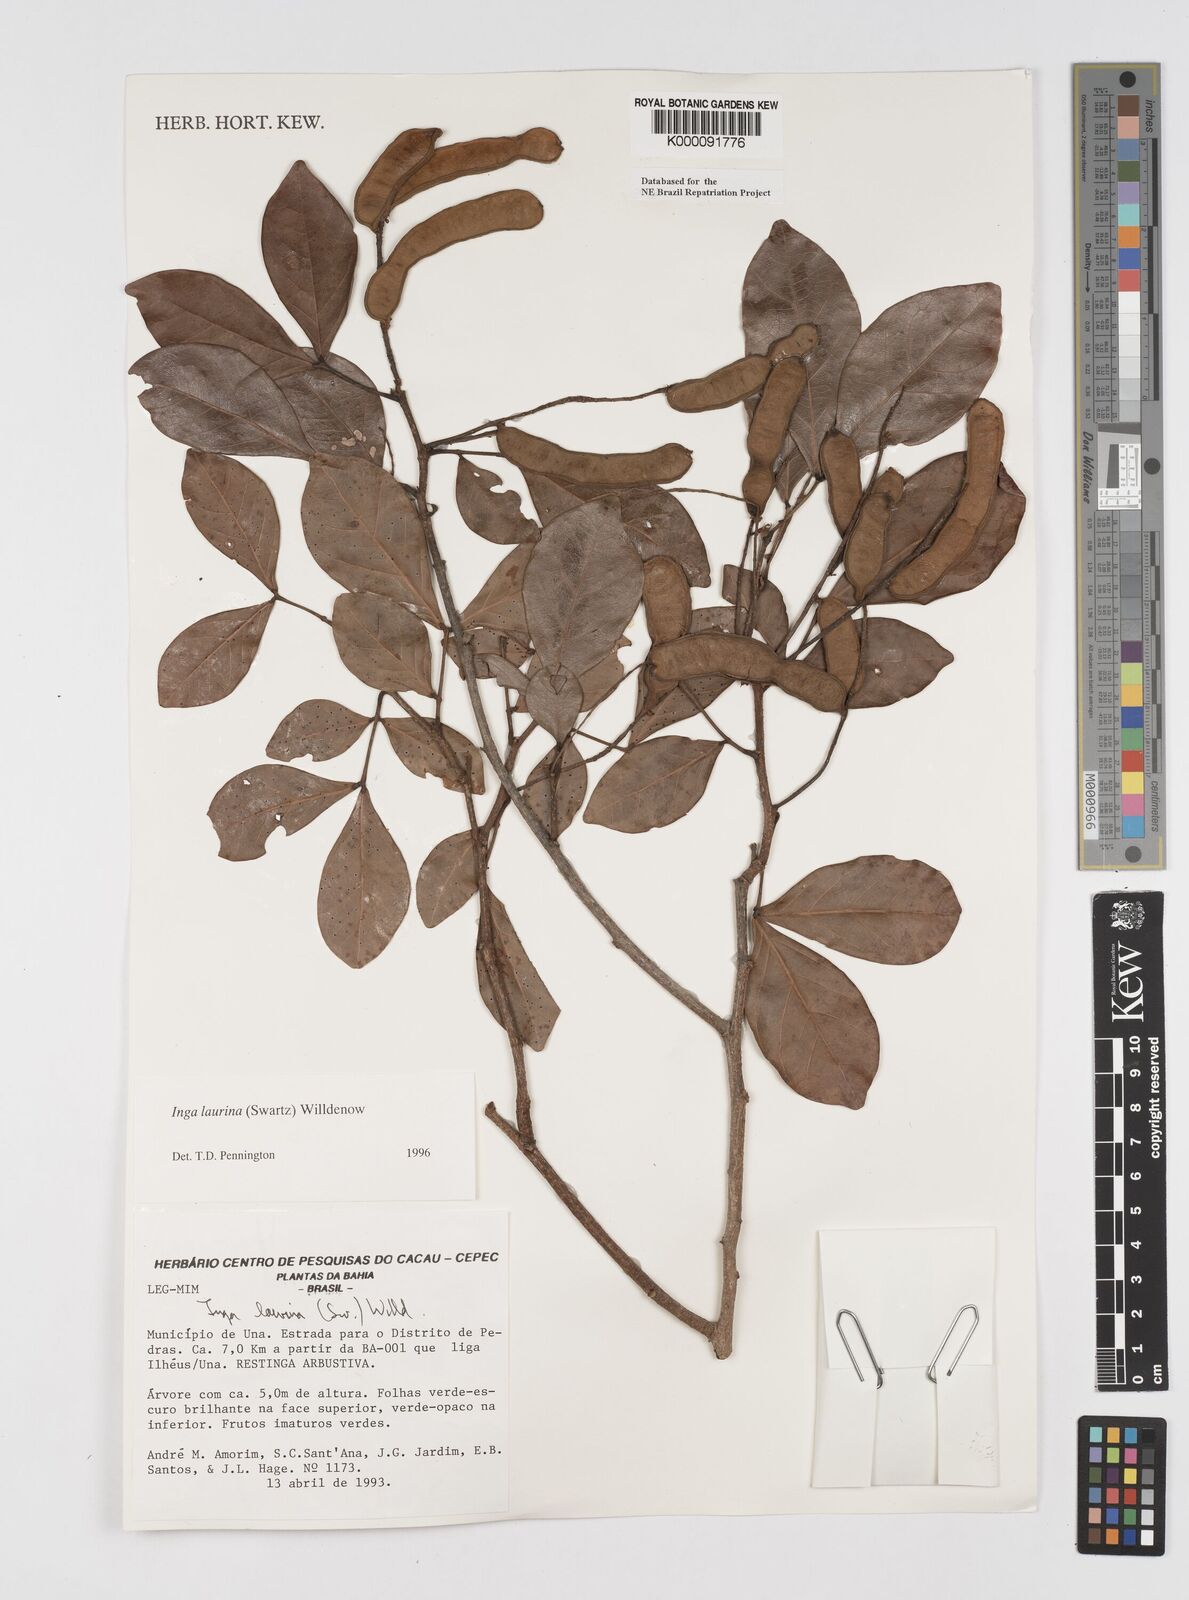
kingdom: Plantae
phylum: Tracheophyta
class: Magnoliopsida
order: Fabales
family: Fabaceae
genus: Inga
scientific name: Inga laurina
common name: Red wood
